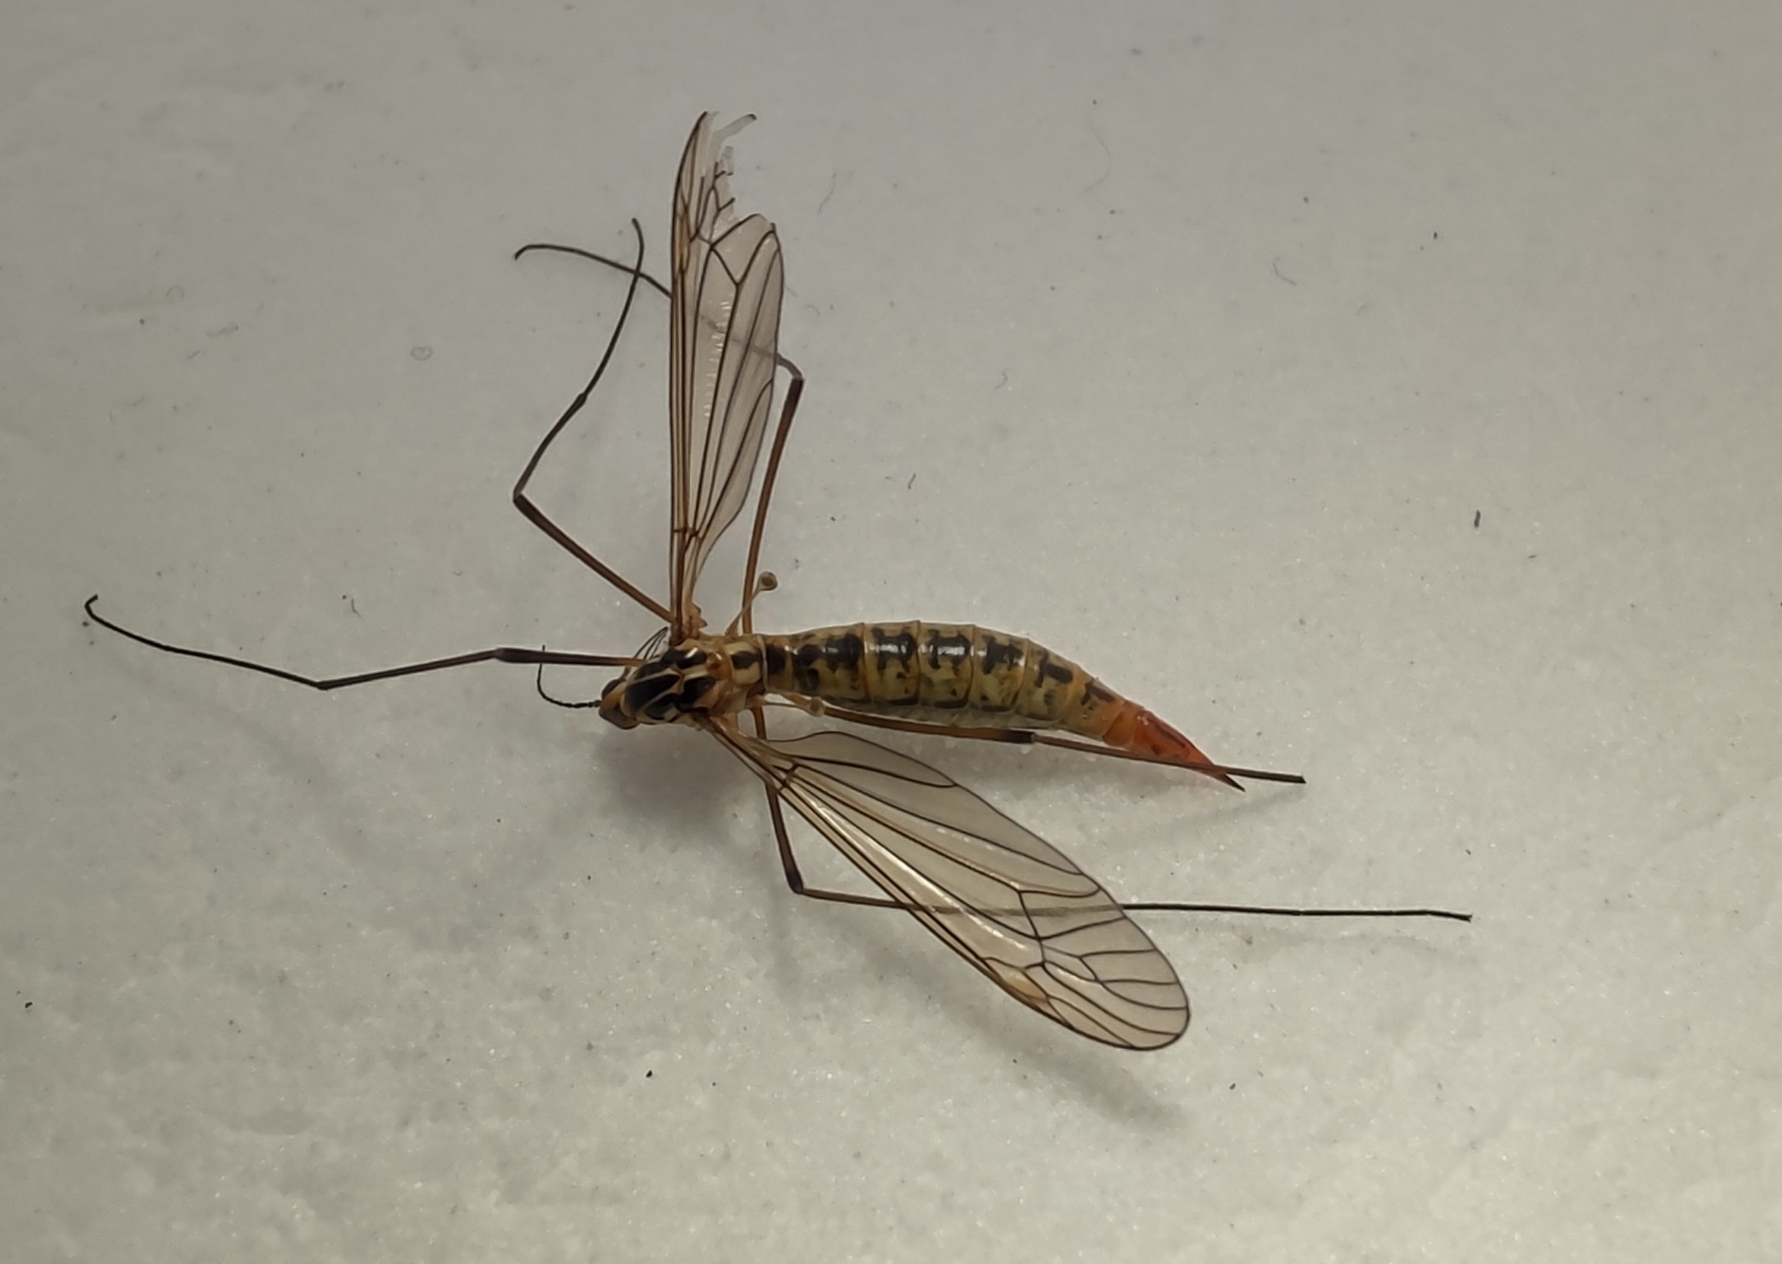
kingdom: Animalia
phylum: Arthropoda
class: Insecta
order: Diptera
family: Tipulidae
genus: Nephrotoma
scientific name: Nephrotoma submaculosa
